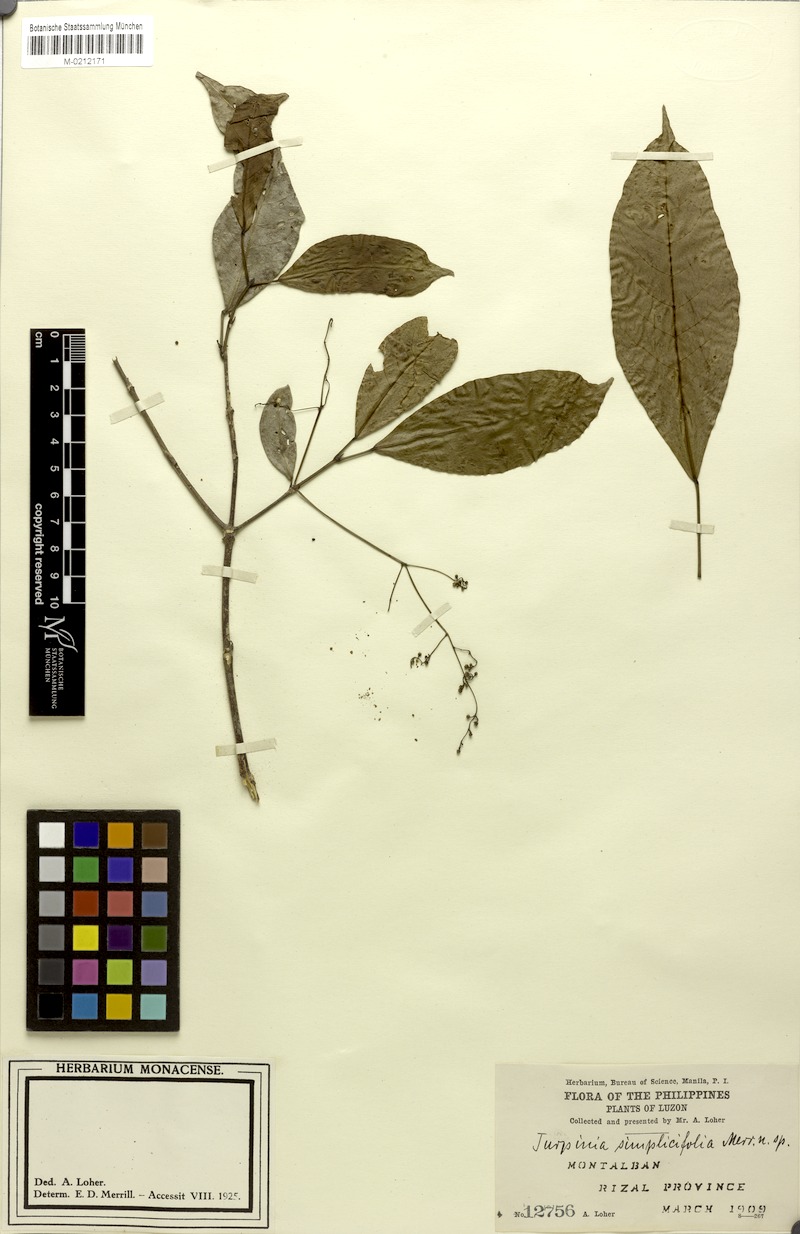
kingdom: Plantae
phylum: Tracheophyta
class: Magnoliopsida
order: Crossosomatales
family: Staphyleaceae
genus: Turpinia
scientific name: Turpinia simplicifolia
